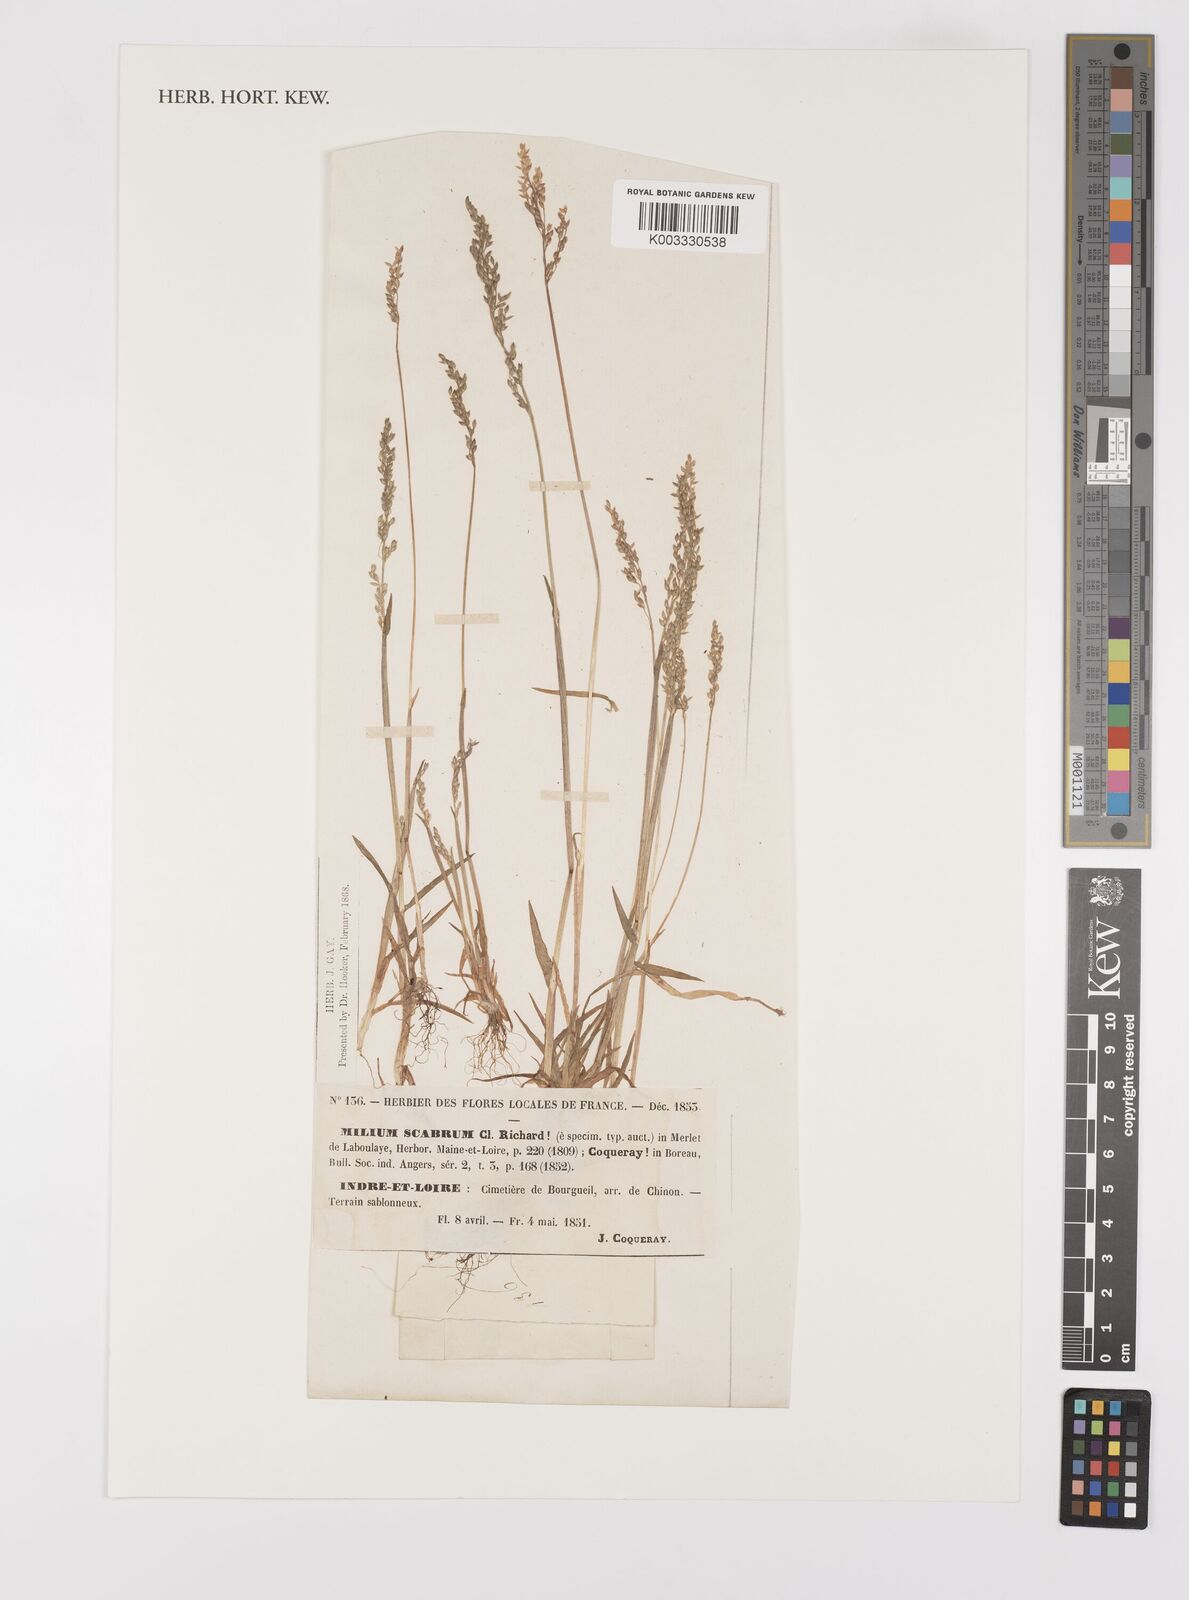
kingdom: Plantae
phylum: Tracheophyta
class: Liliopsida
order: Poales
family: Poaceae
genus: Milium
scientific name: Milium vernale
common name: Early millet
